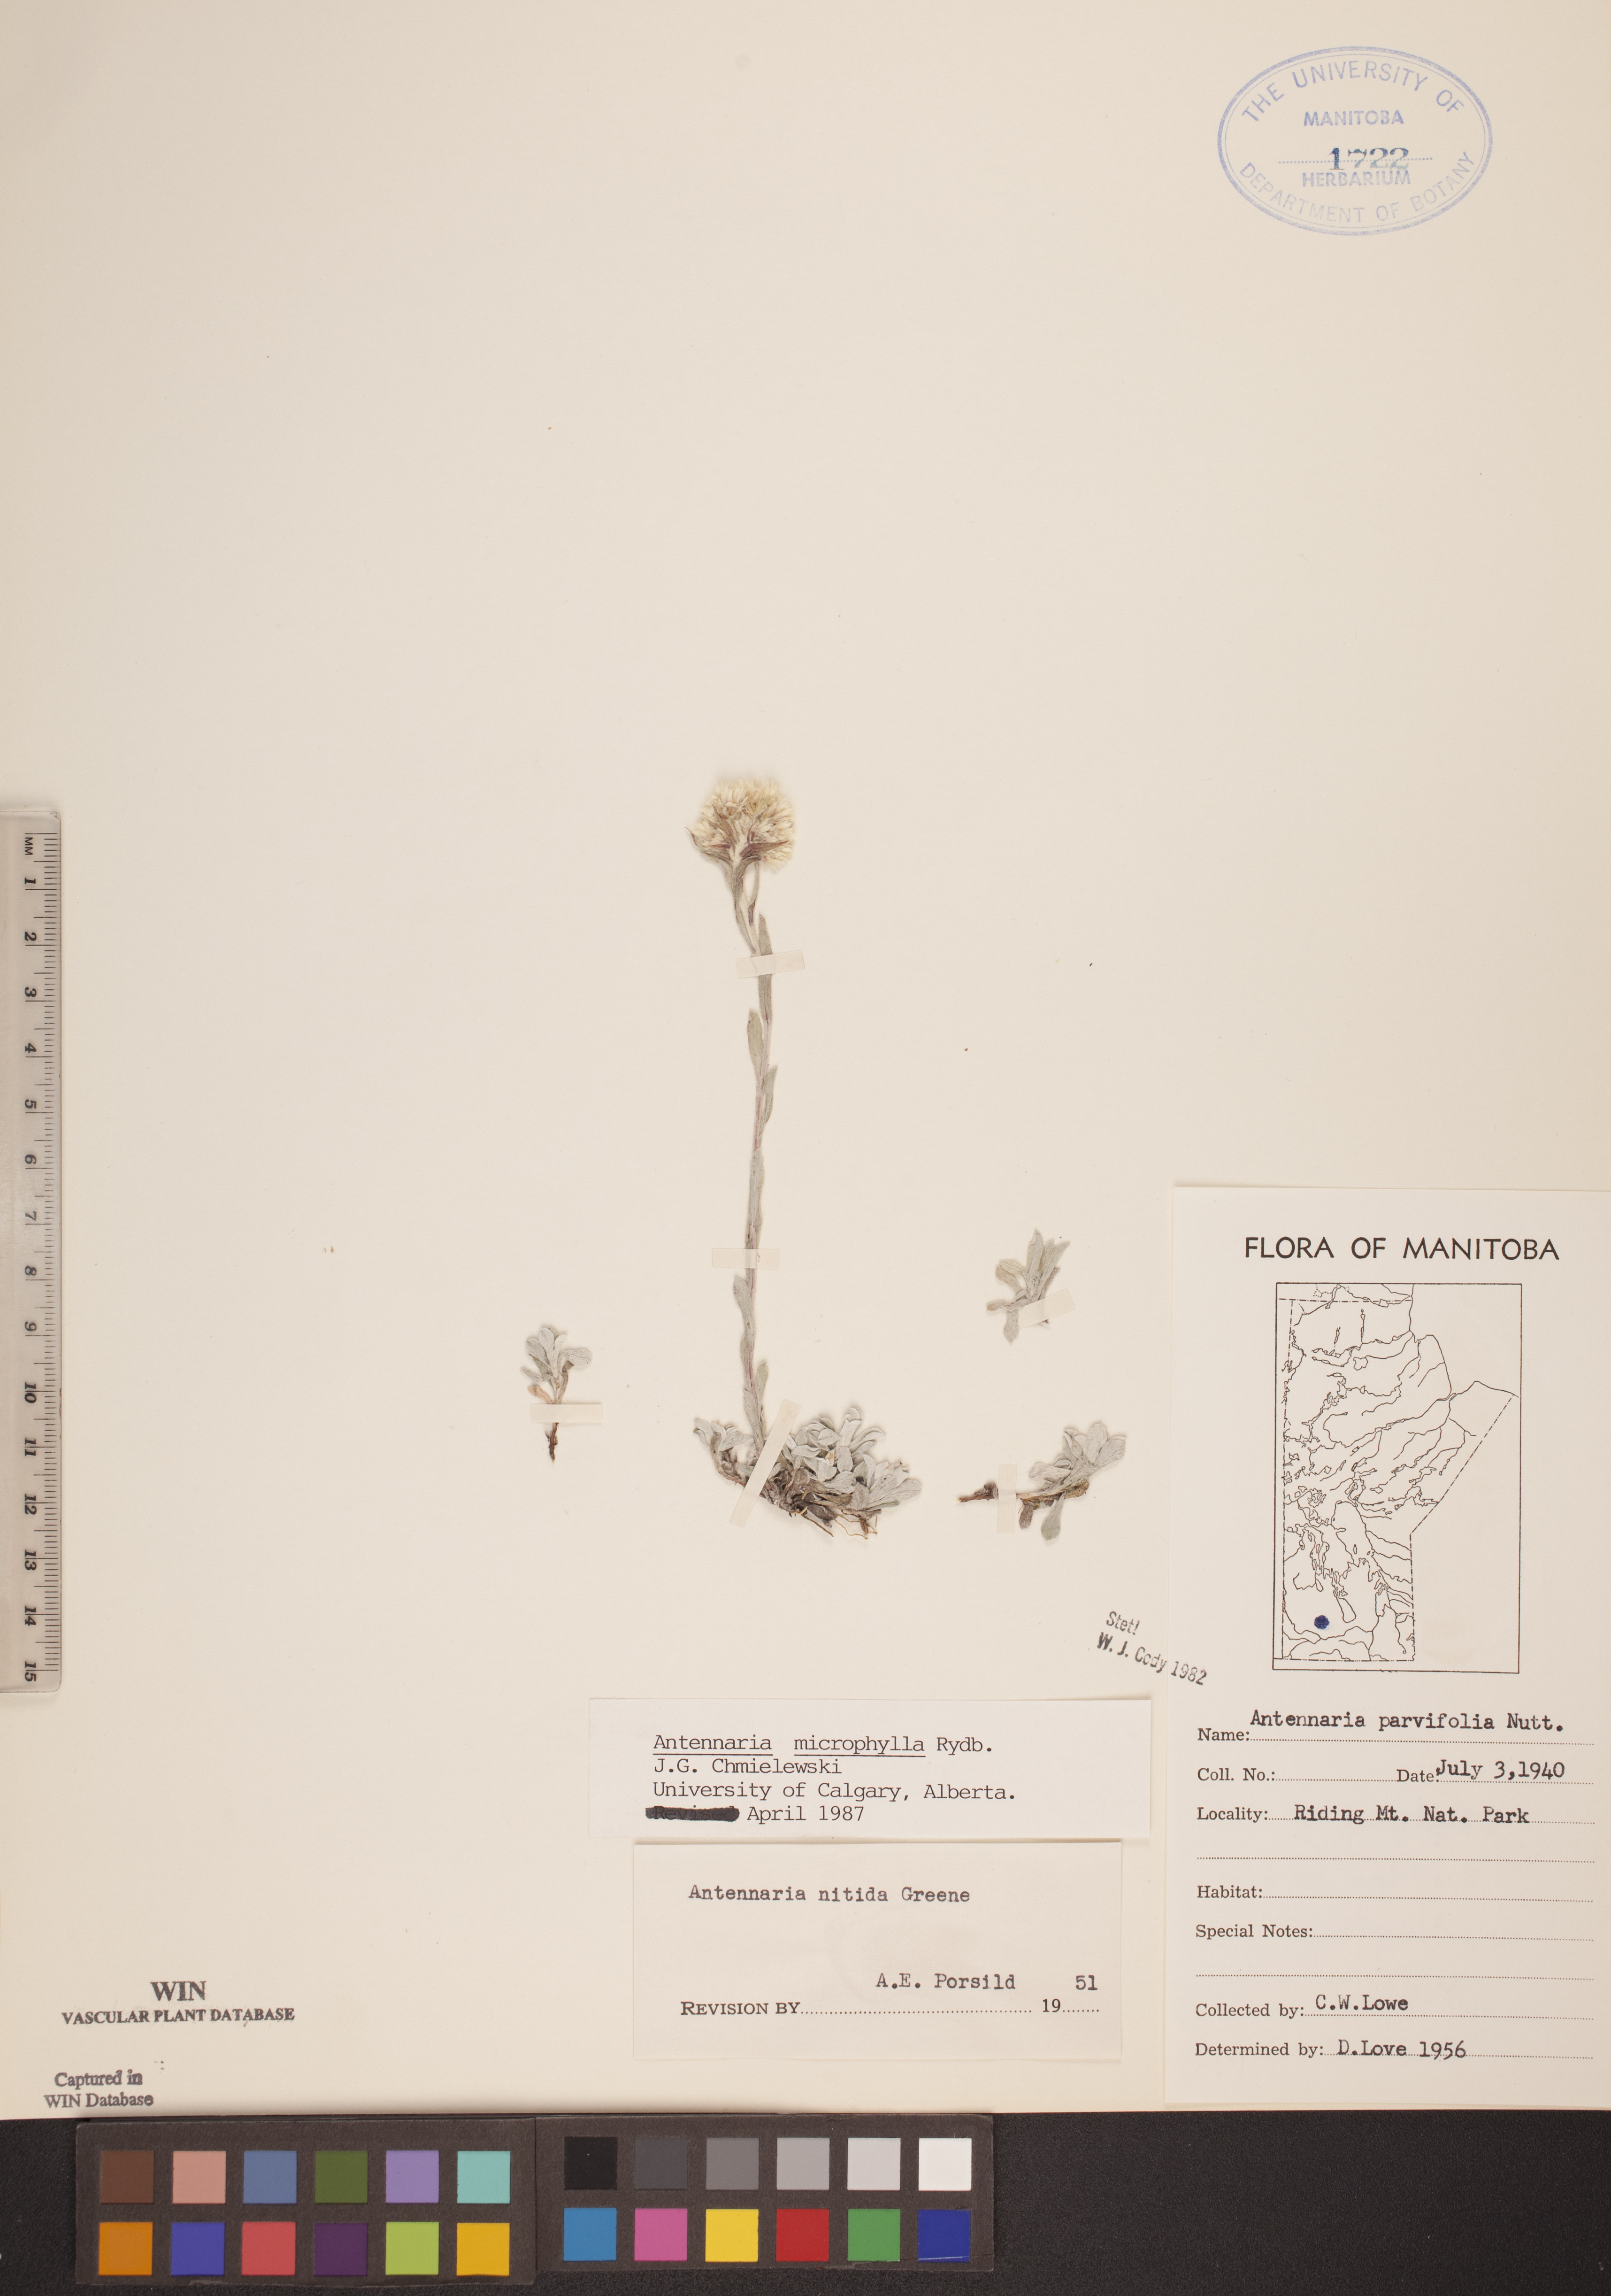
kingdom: Plantae
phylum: Tracheophyta
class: Magnoliopsida
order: Asterales
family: Asteraceae
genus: Antennaria
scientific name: Antennaria microphylla
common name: Littleleaf pussytoes
